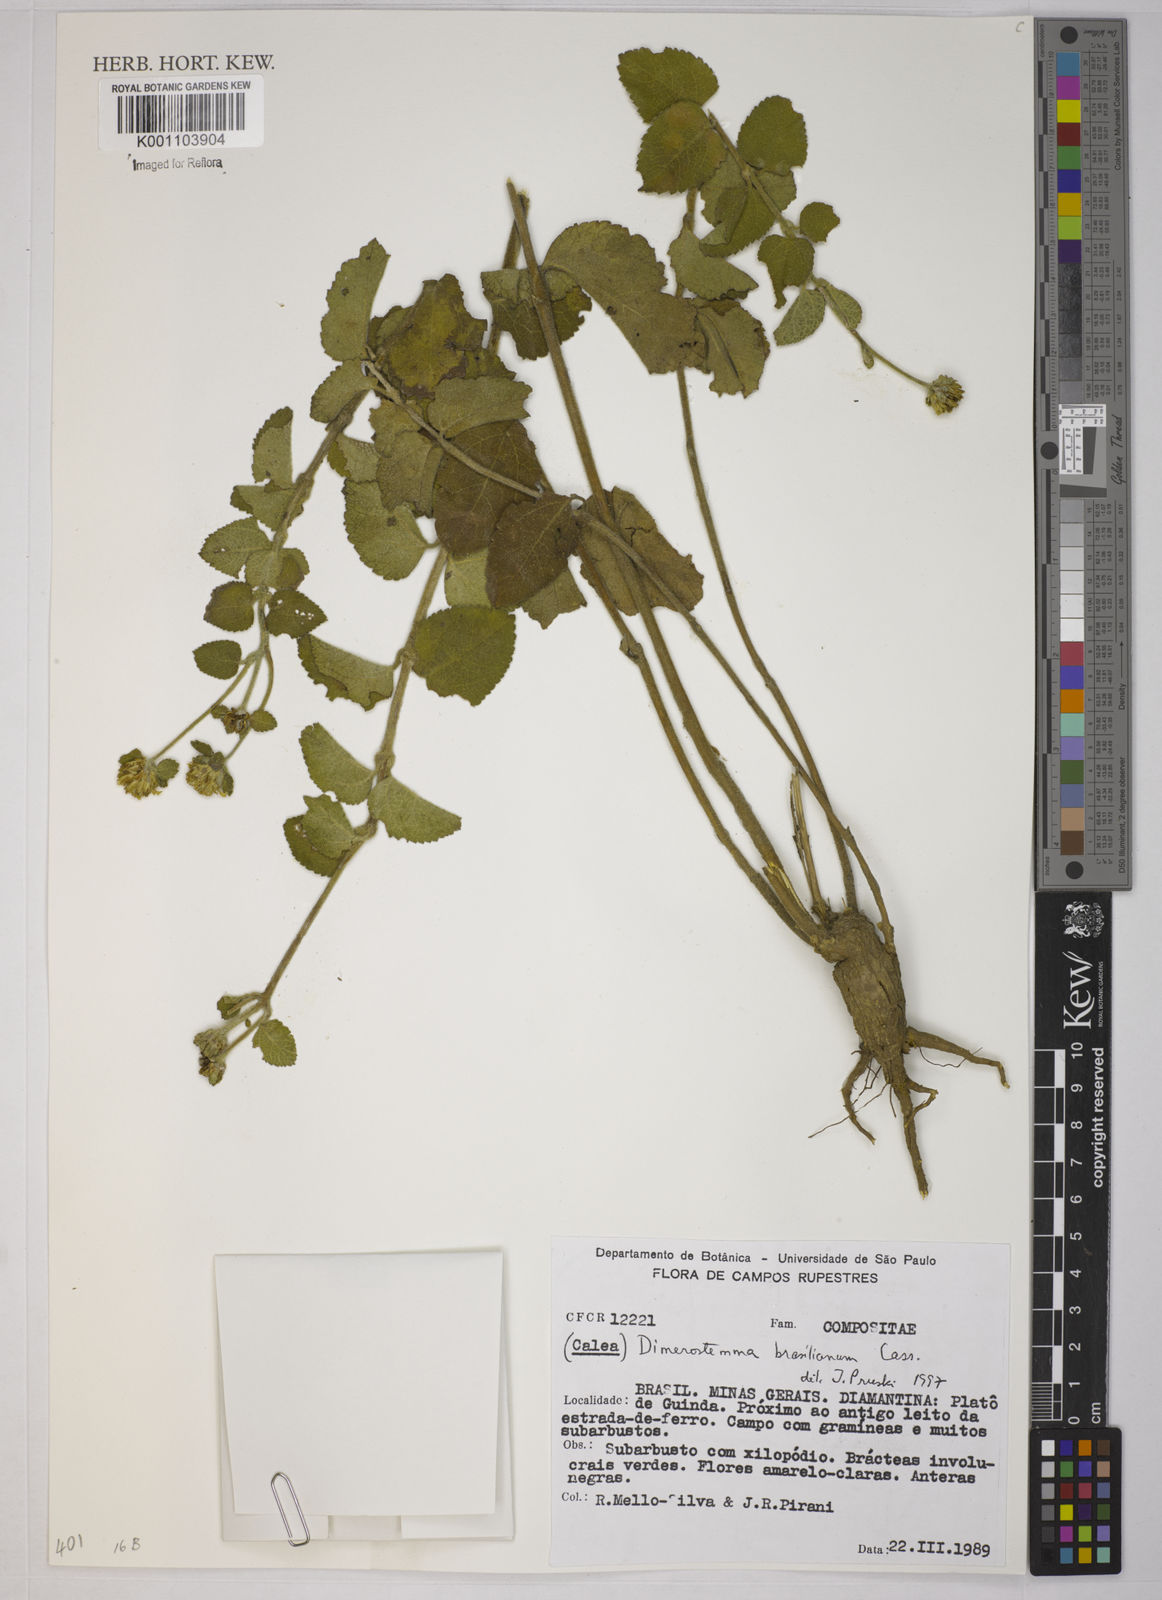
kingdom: Plantae
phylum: Tracheophyta
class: Magnoliopsida
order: Asterales
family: Asteraceae
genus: Dimerostemma
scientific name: Dimerostemma brasilianum
